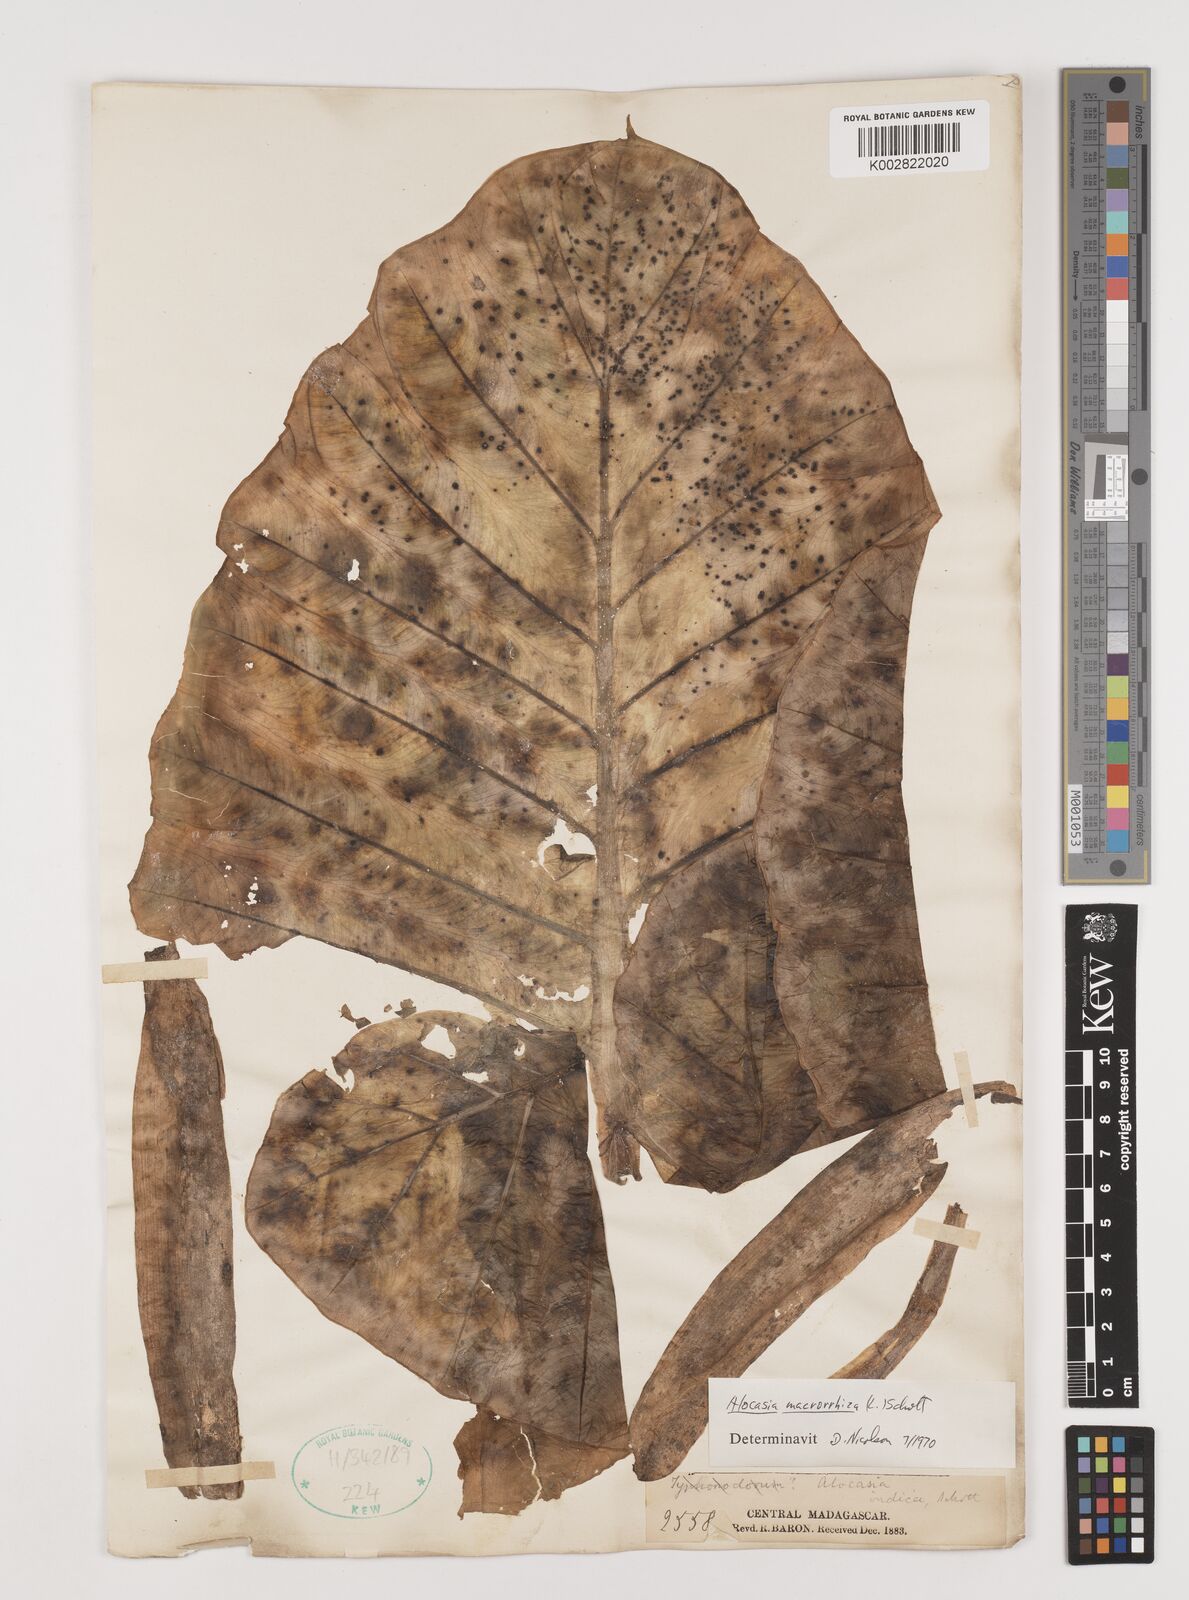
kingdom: Plantae
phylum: Tracheophyta
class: Liliopsida
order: Alismatales
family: Araceae
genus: Alocasia
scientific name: Alocasia macrorrhizos
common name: Giant taro
